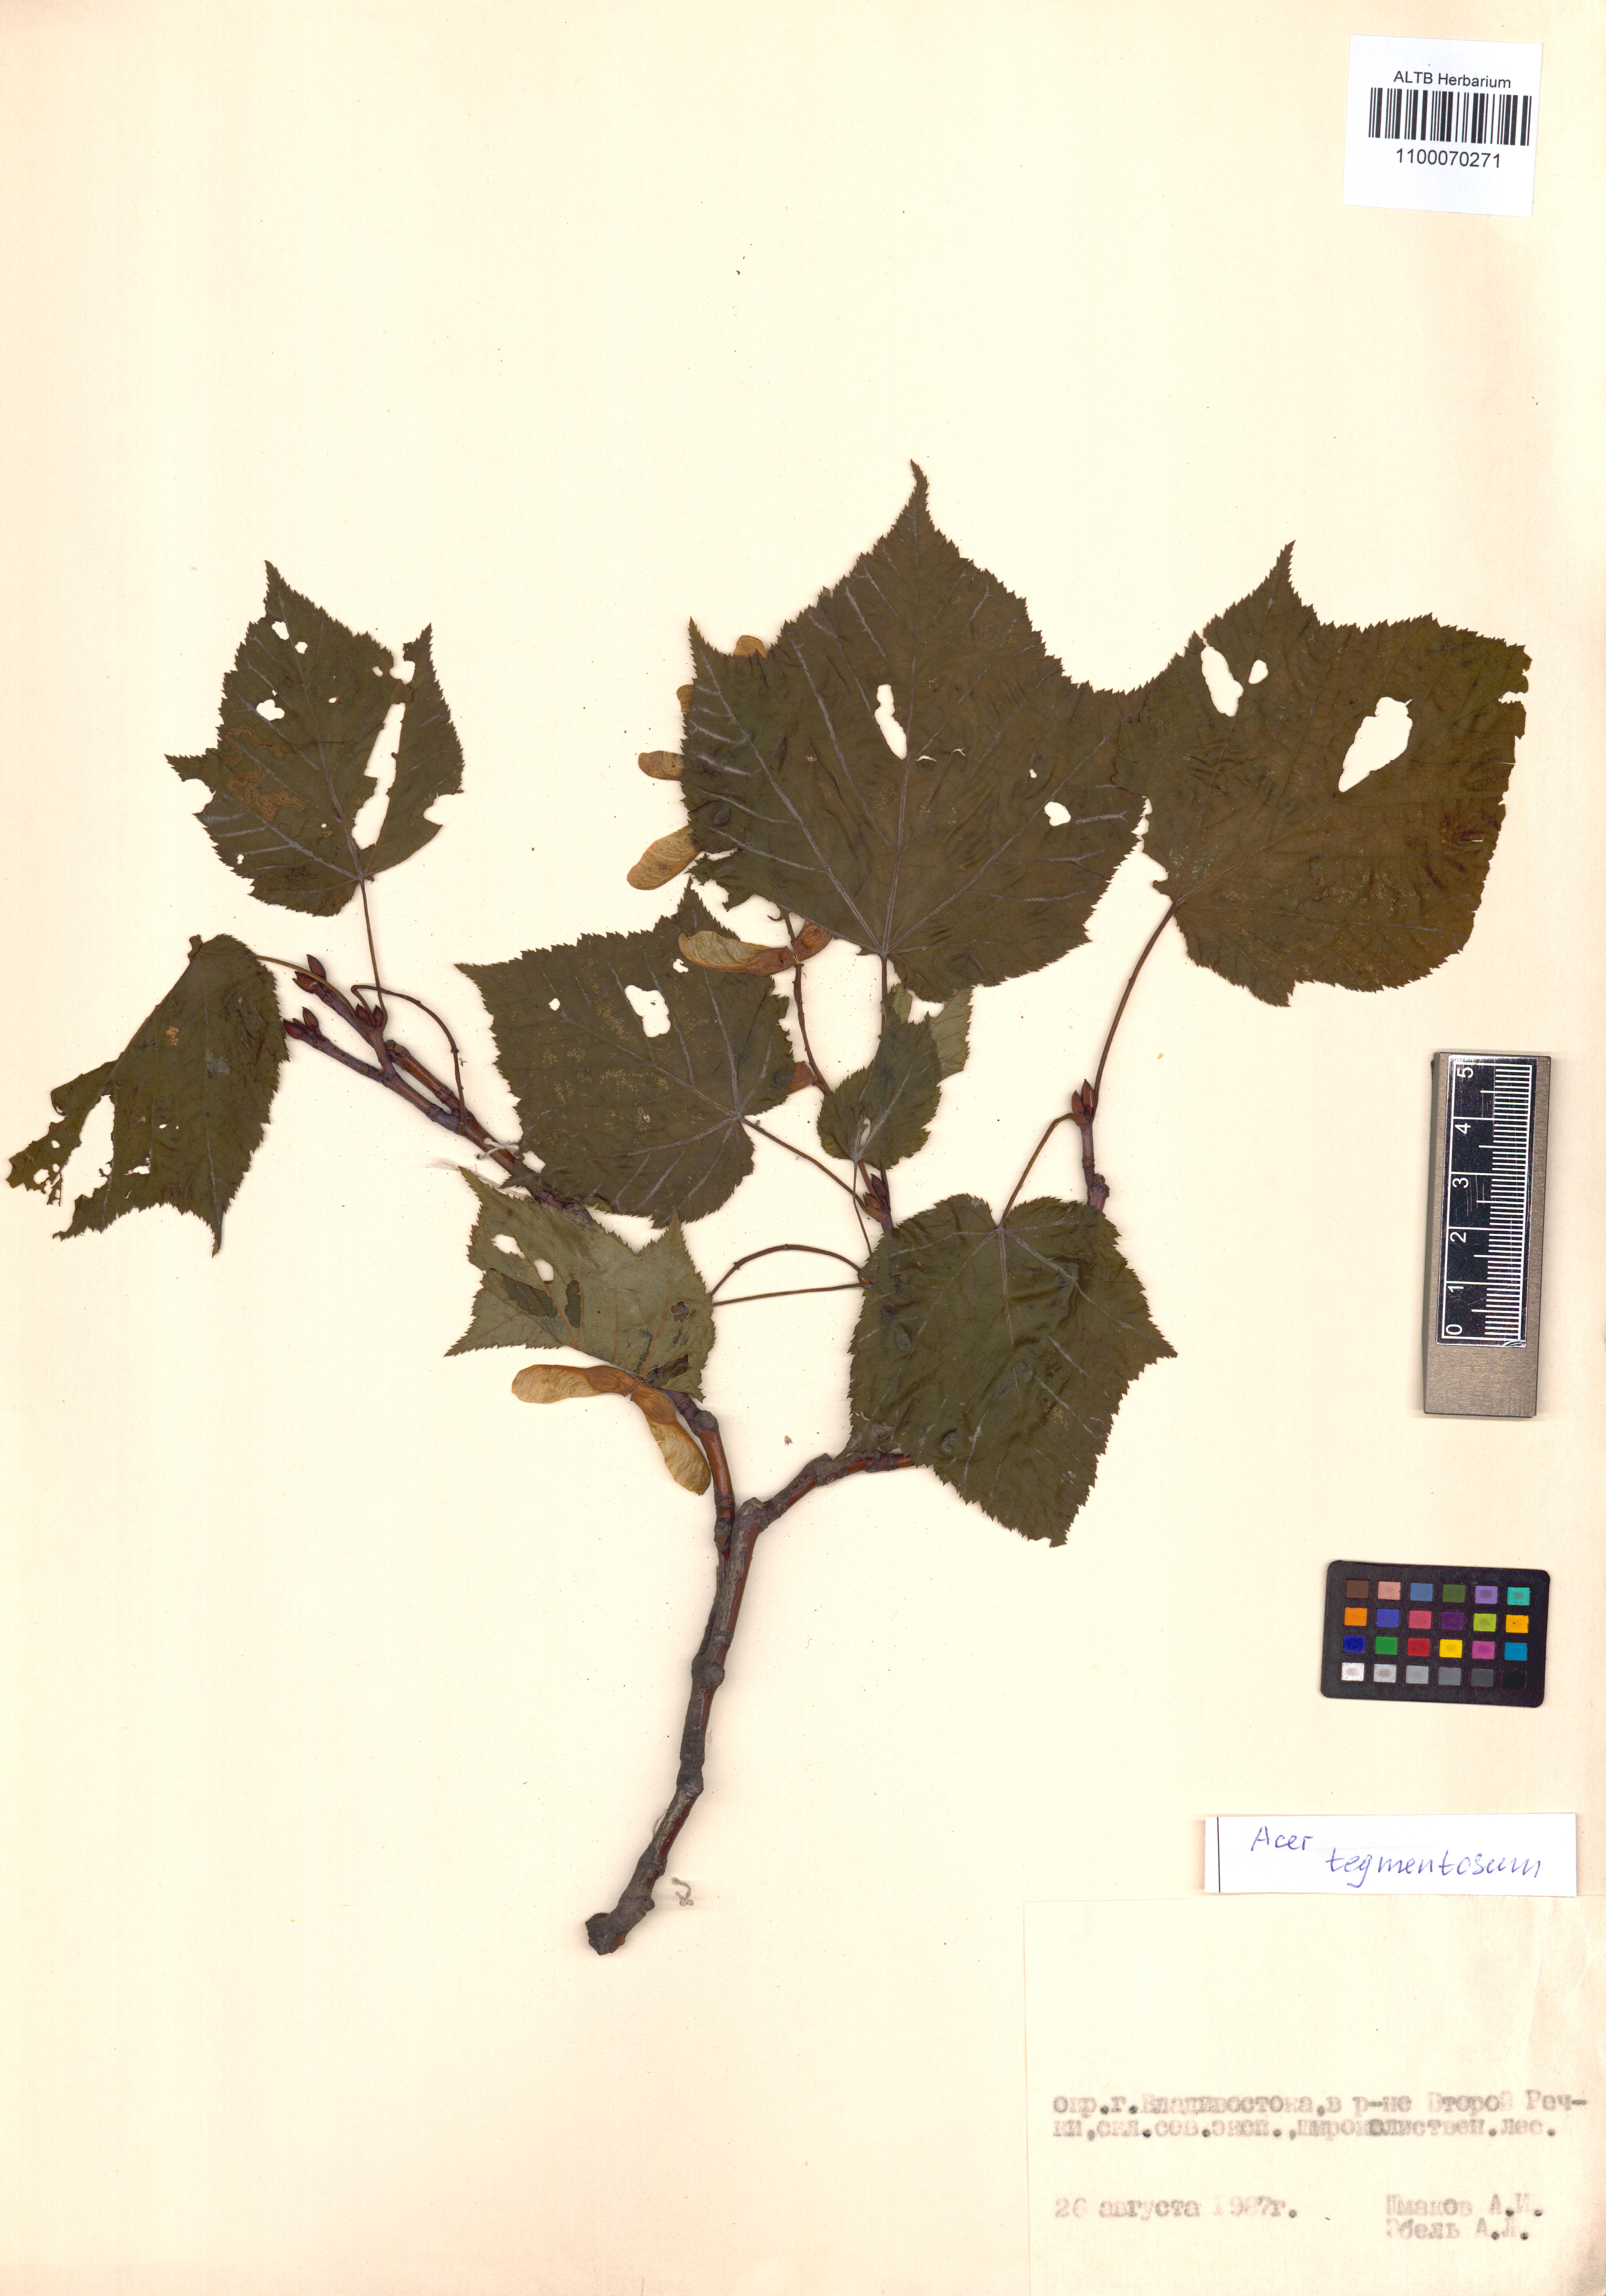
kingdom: Plantae
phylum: Tracheophyta
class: Magnoliopsida
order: Sapindales
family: Sapindaceae
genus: Acer
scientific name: Acer tegmentosum
